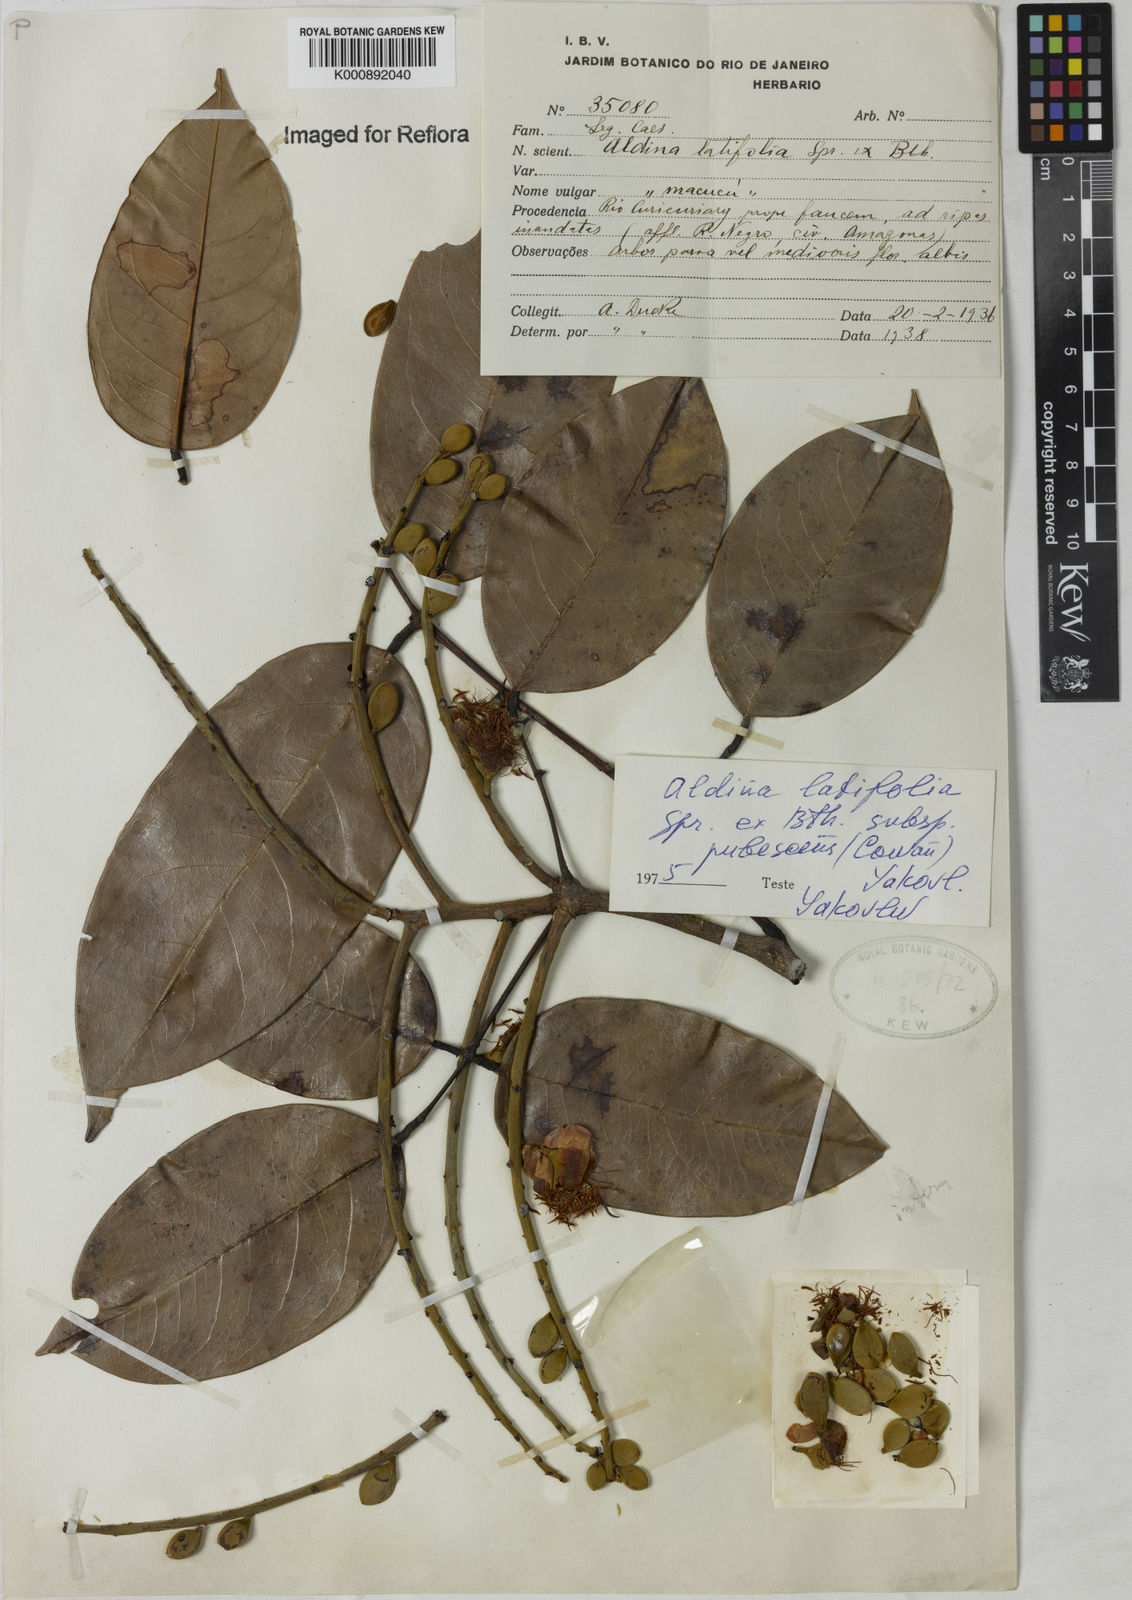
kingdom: Plantae
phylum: Tracheophyta
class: Magnoliopsida
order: Fabales
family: Fabaceae
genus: Aldina
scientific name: Aldina latifolia
